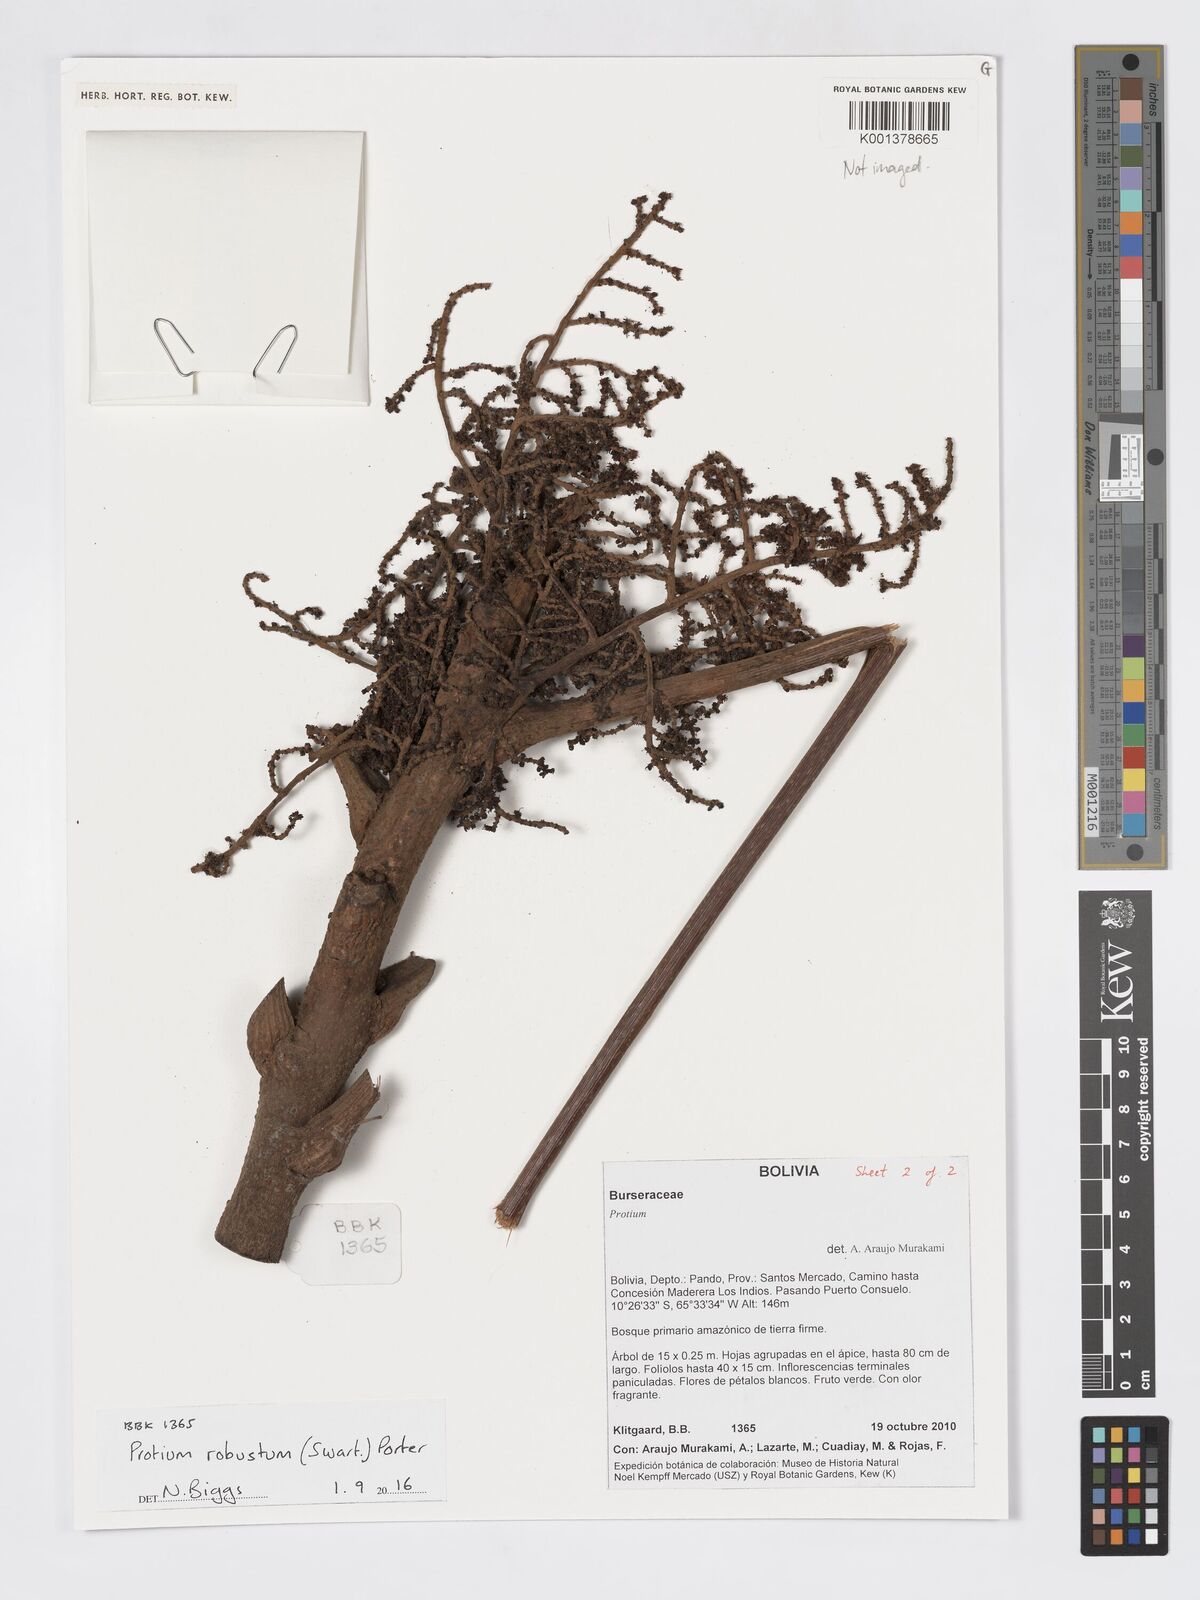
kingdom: Plantae
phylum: Tracheophyta
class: Magnoliopsida
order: Sapindales
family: Burseraceae
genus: Protium
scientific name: Protium robustum
